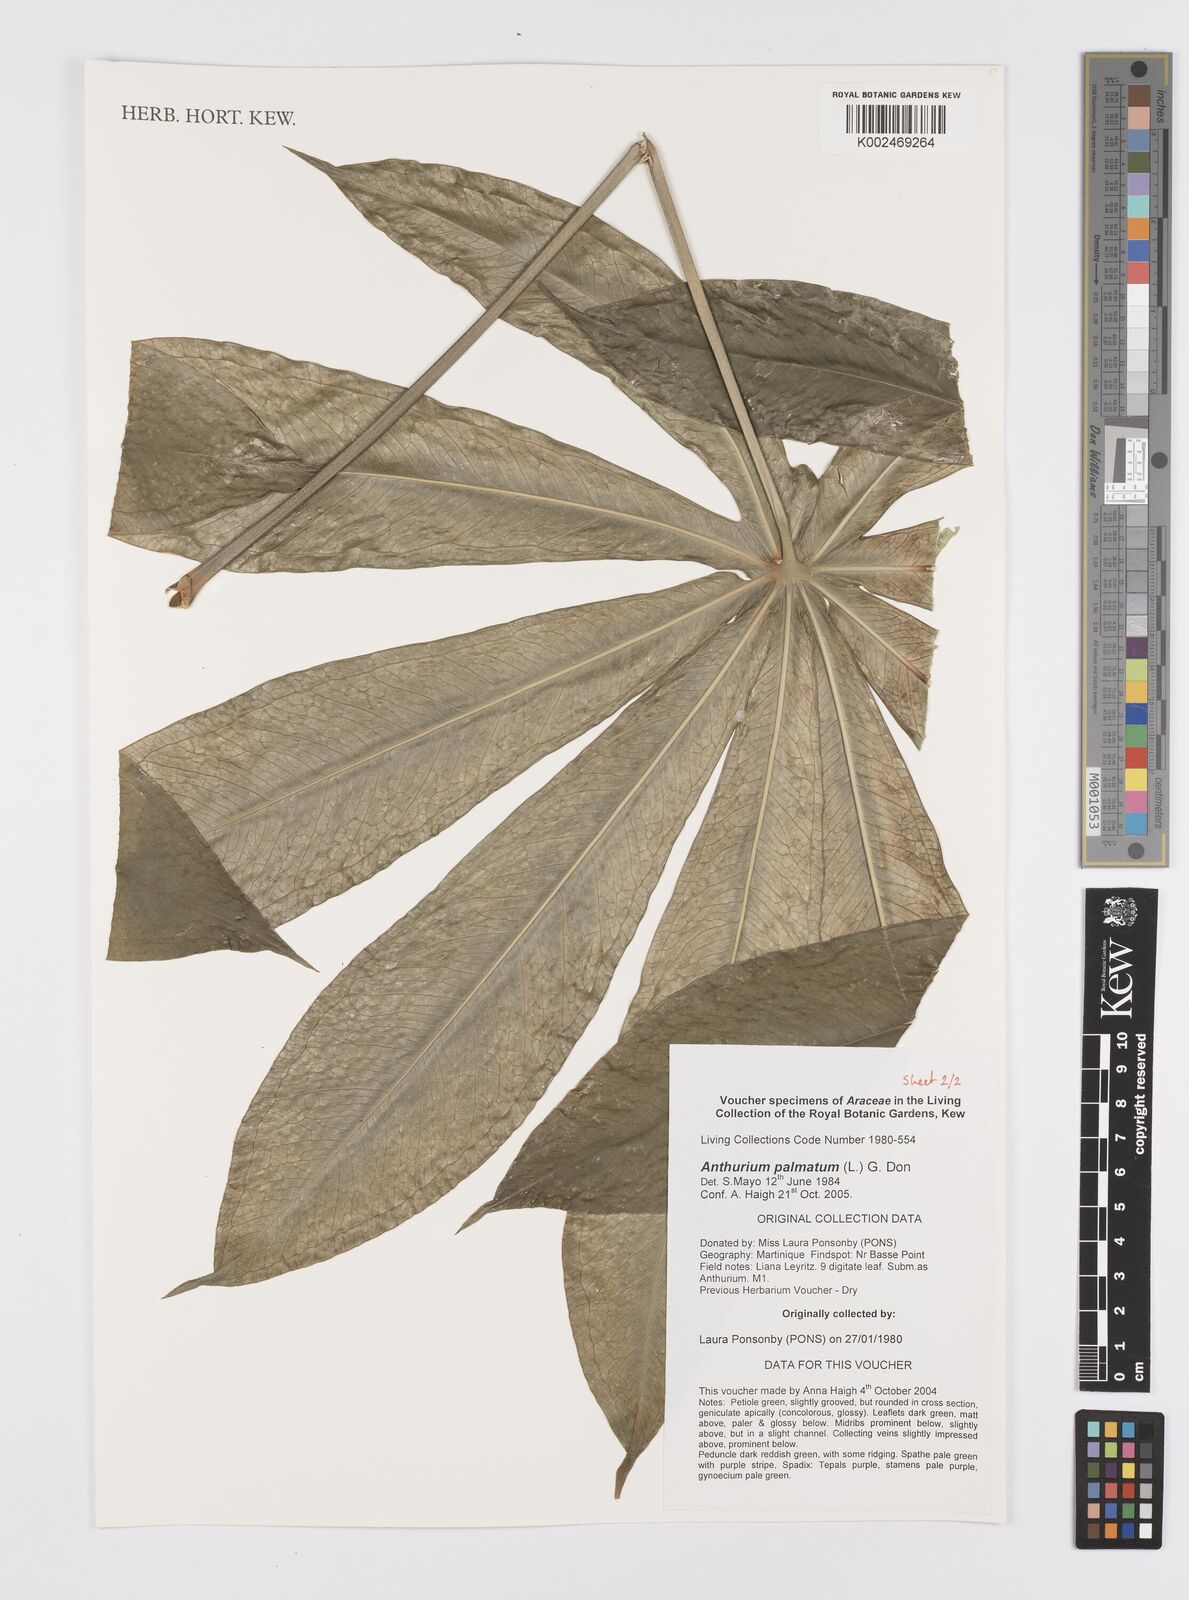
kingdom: Plantae
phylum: Tracheophyta
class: Liliopsida
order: Alismatales
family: Araceae
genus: Anthurium
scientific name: Anthurium palmatum
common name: Mibi
